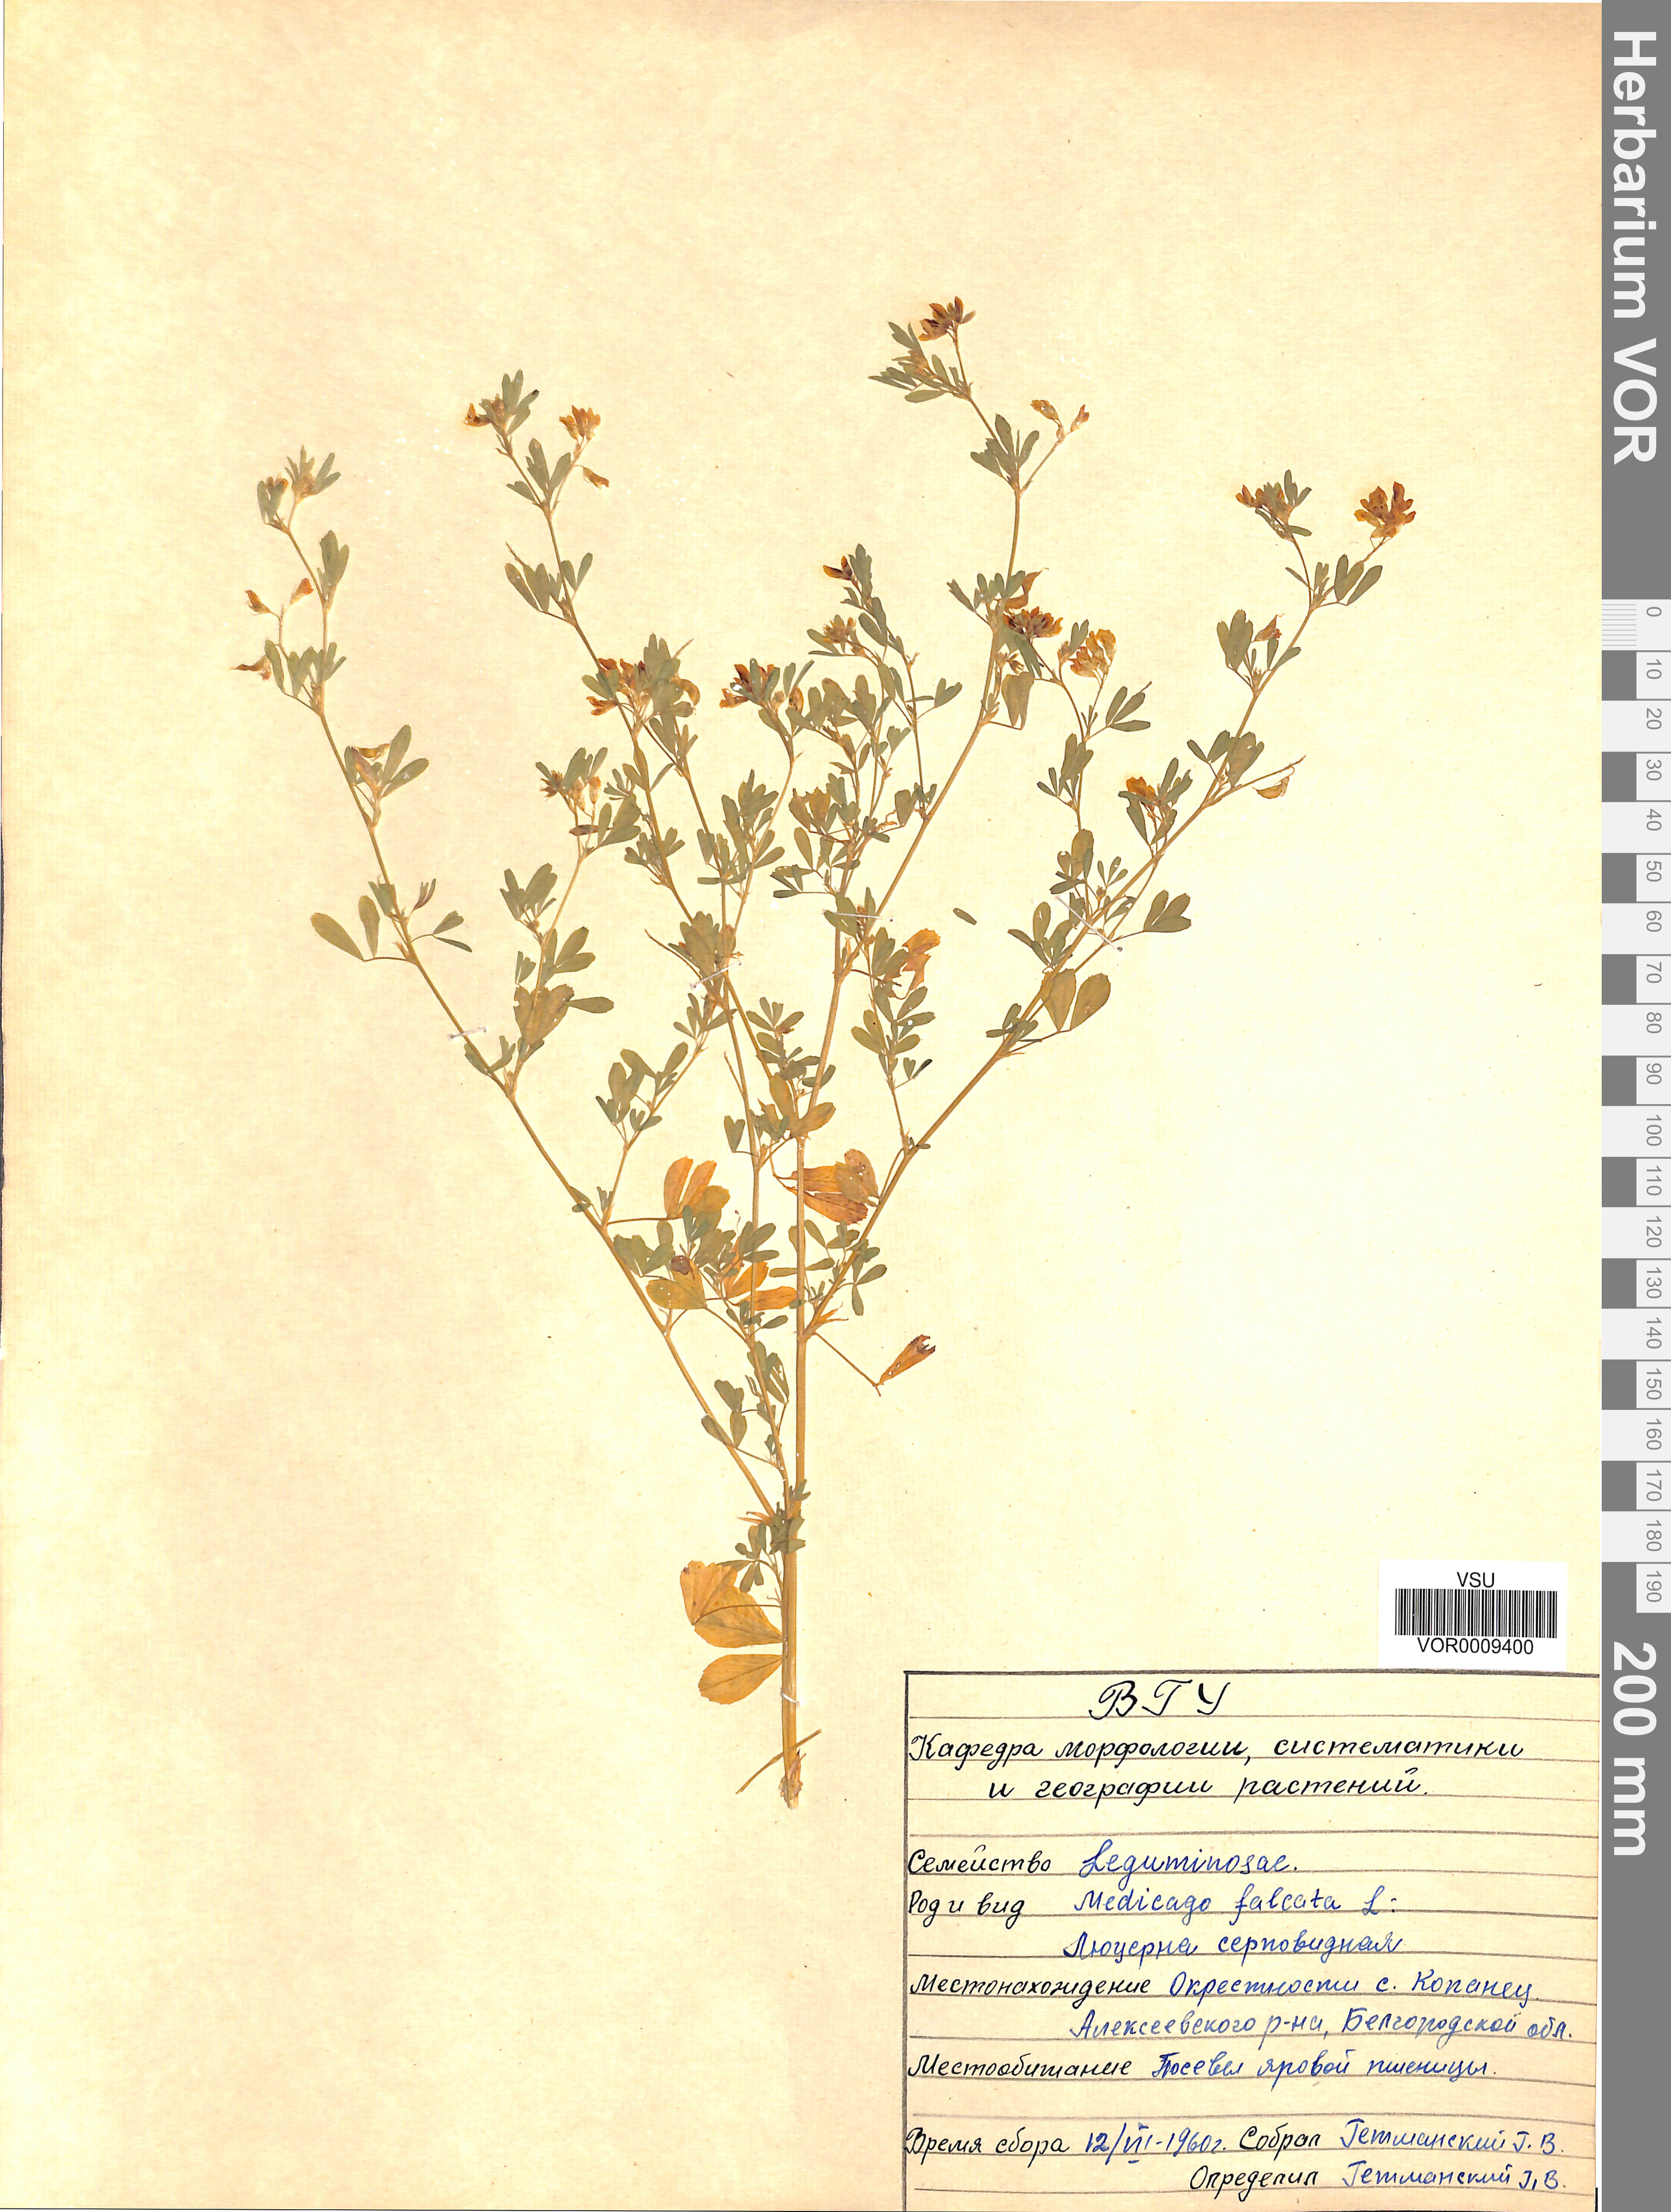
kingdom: Plantae
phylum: Tracheophyta
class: Magnoliopsida
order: Fabales
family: Fabaceae
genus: Medicago
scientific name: Medicago falcata
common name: Sickle medick
